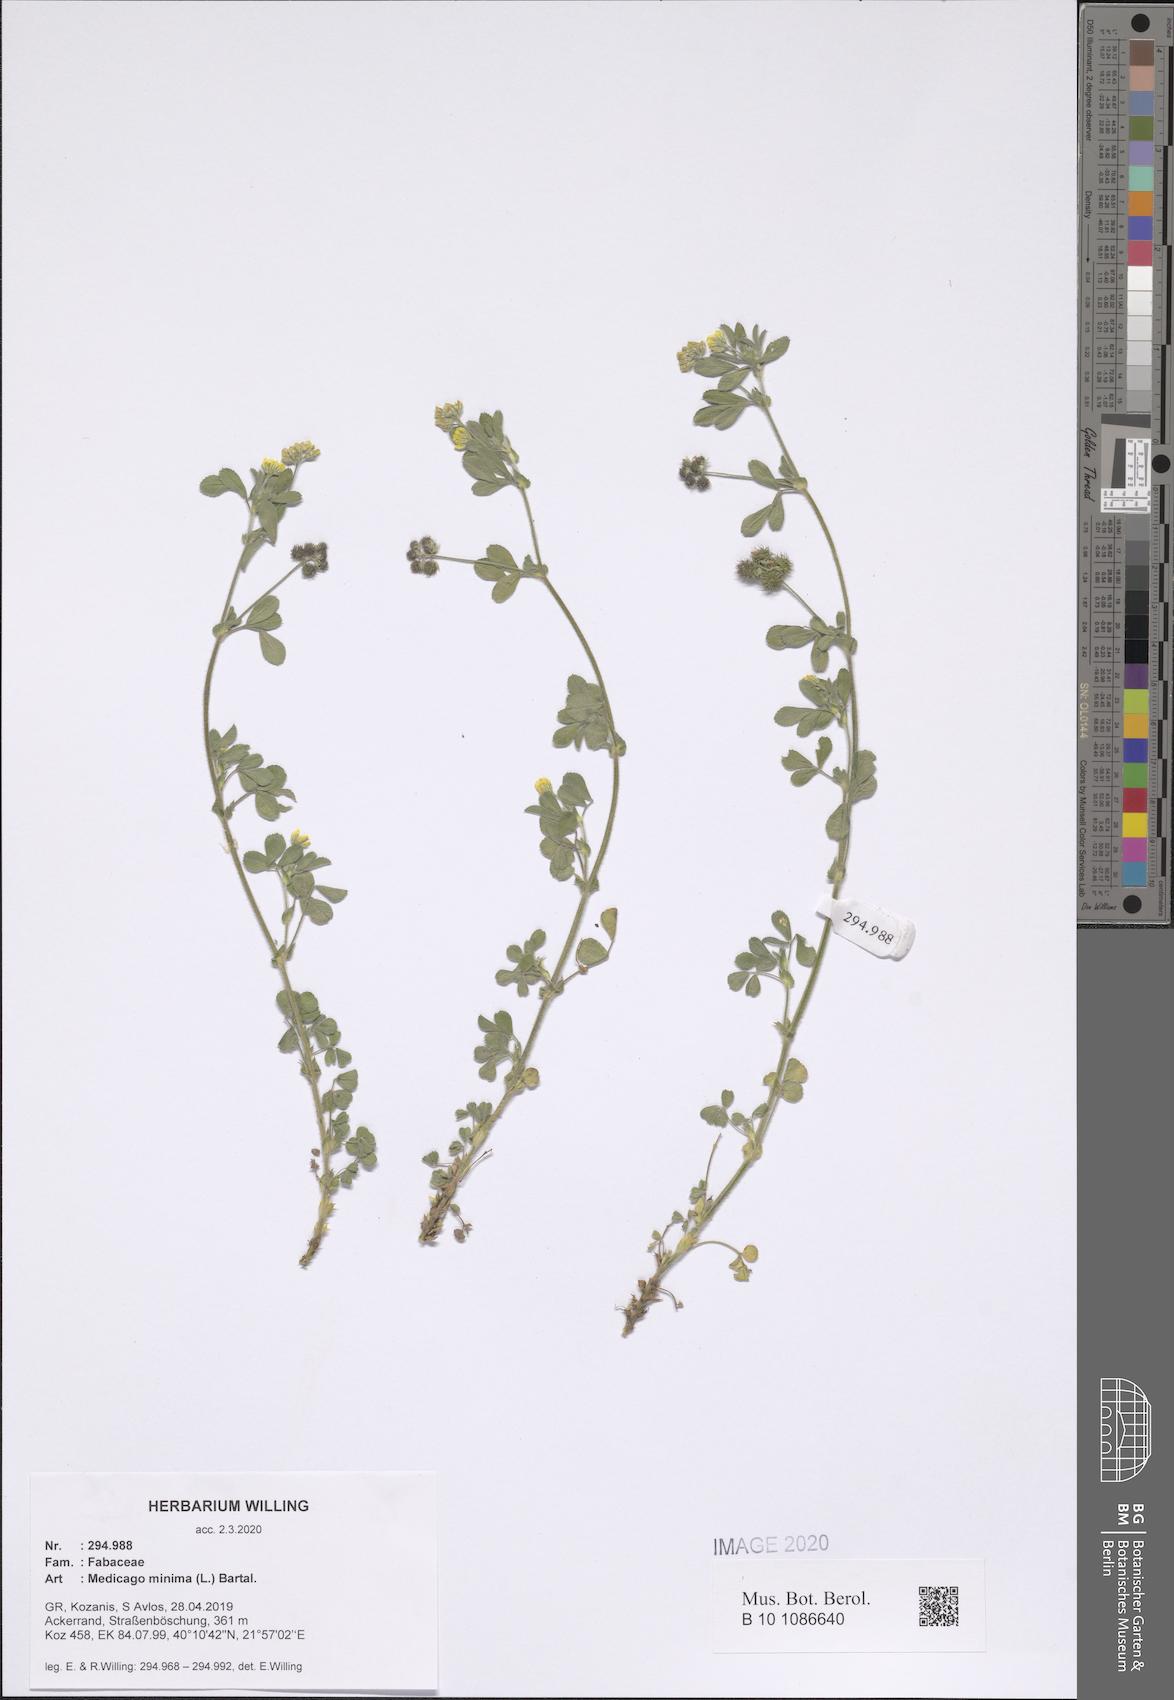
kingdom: Plantae
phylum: Tracheophyta
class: Magnoliopsida
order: Fabales
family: Fabaceae
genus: Medicago
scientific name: Medicago minima
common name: Little bur-clover
